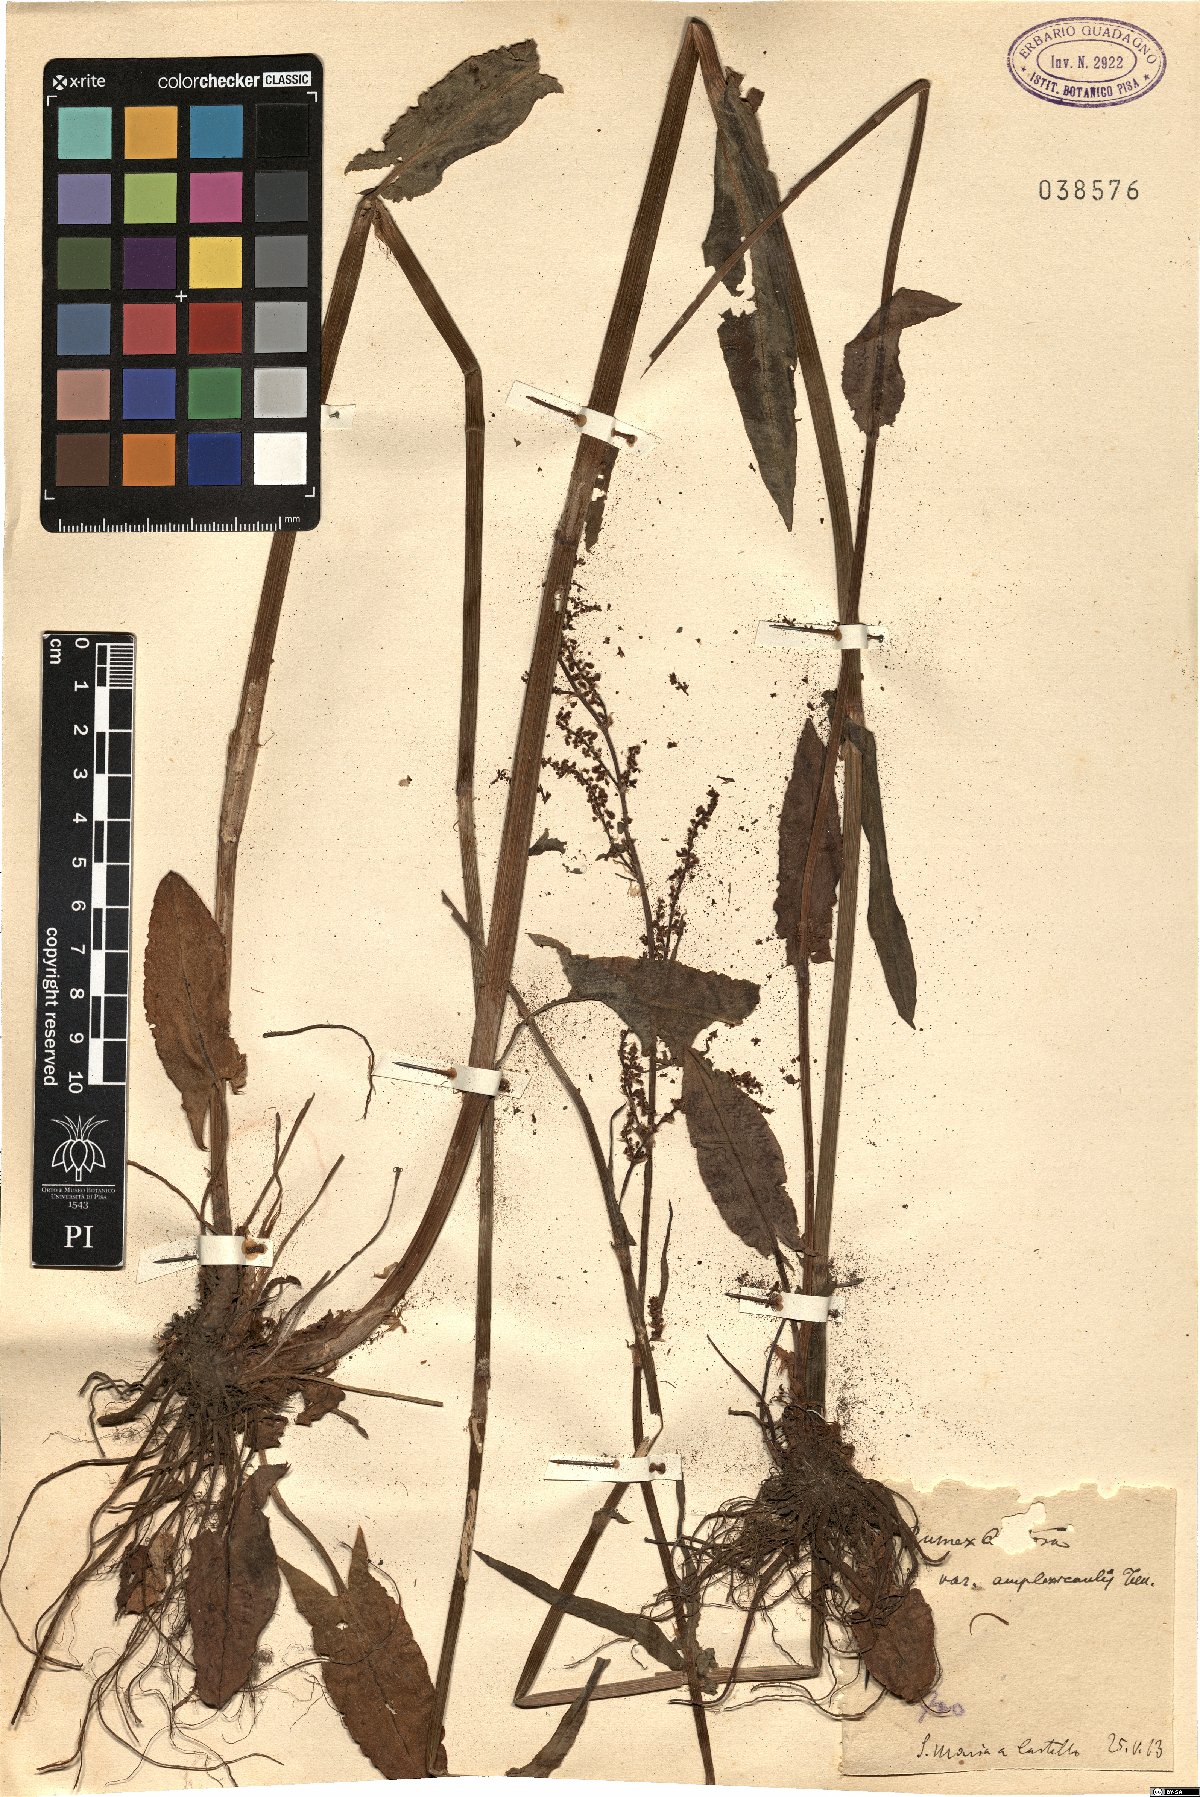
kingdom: Plantae
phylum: Tracheophyta
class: Magnoliopsida
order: Caryophyllales
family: Polygonaceae
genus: Rumex
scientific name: Rumex arifolius
